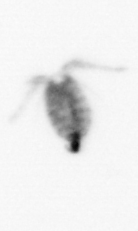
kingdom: Animalia
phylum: Arthropoda
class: Copepoda
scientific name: Copepoda
